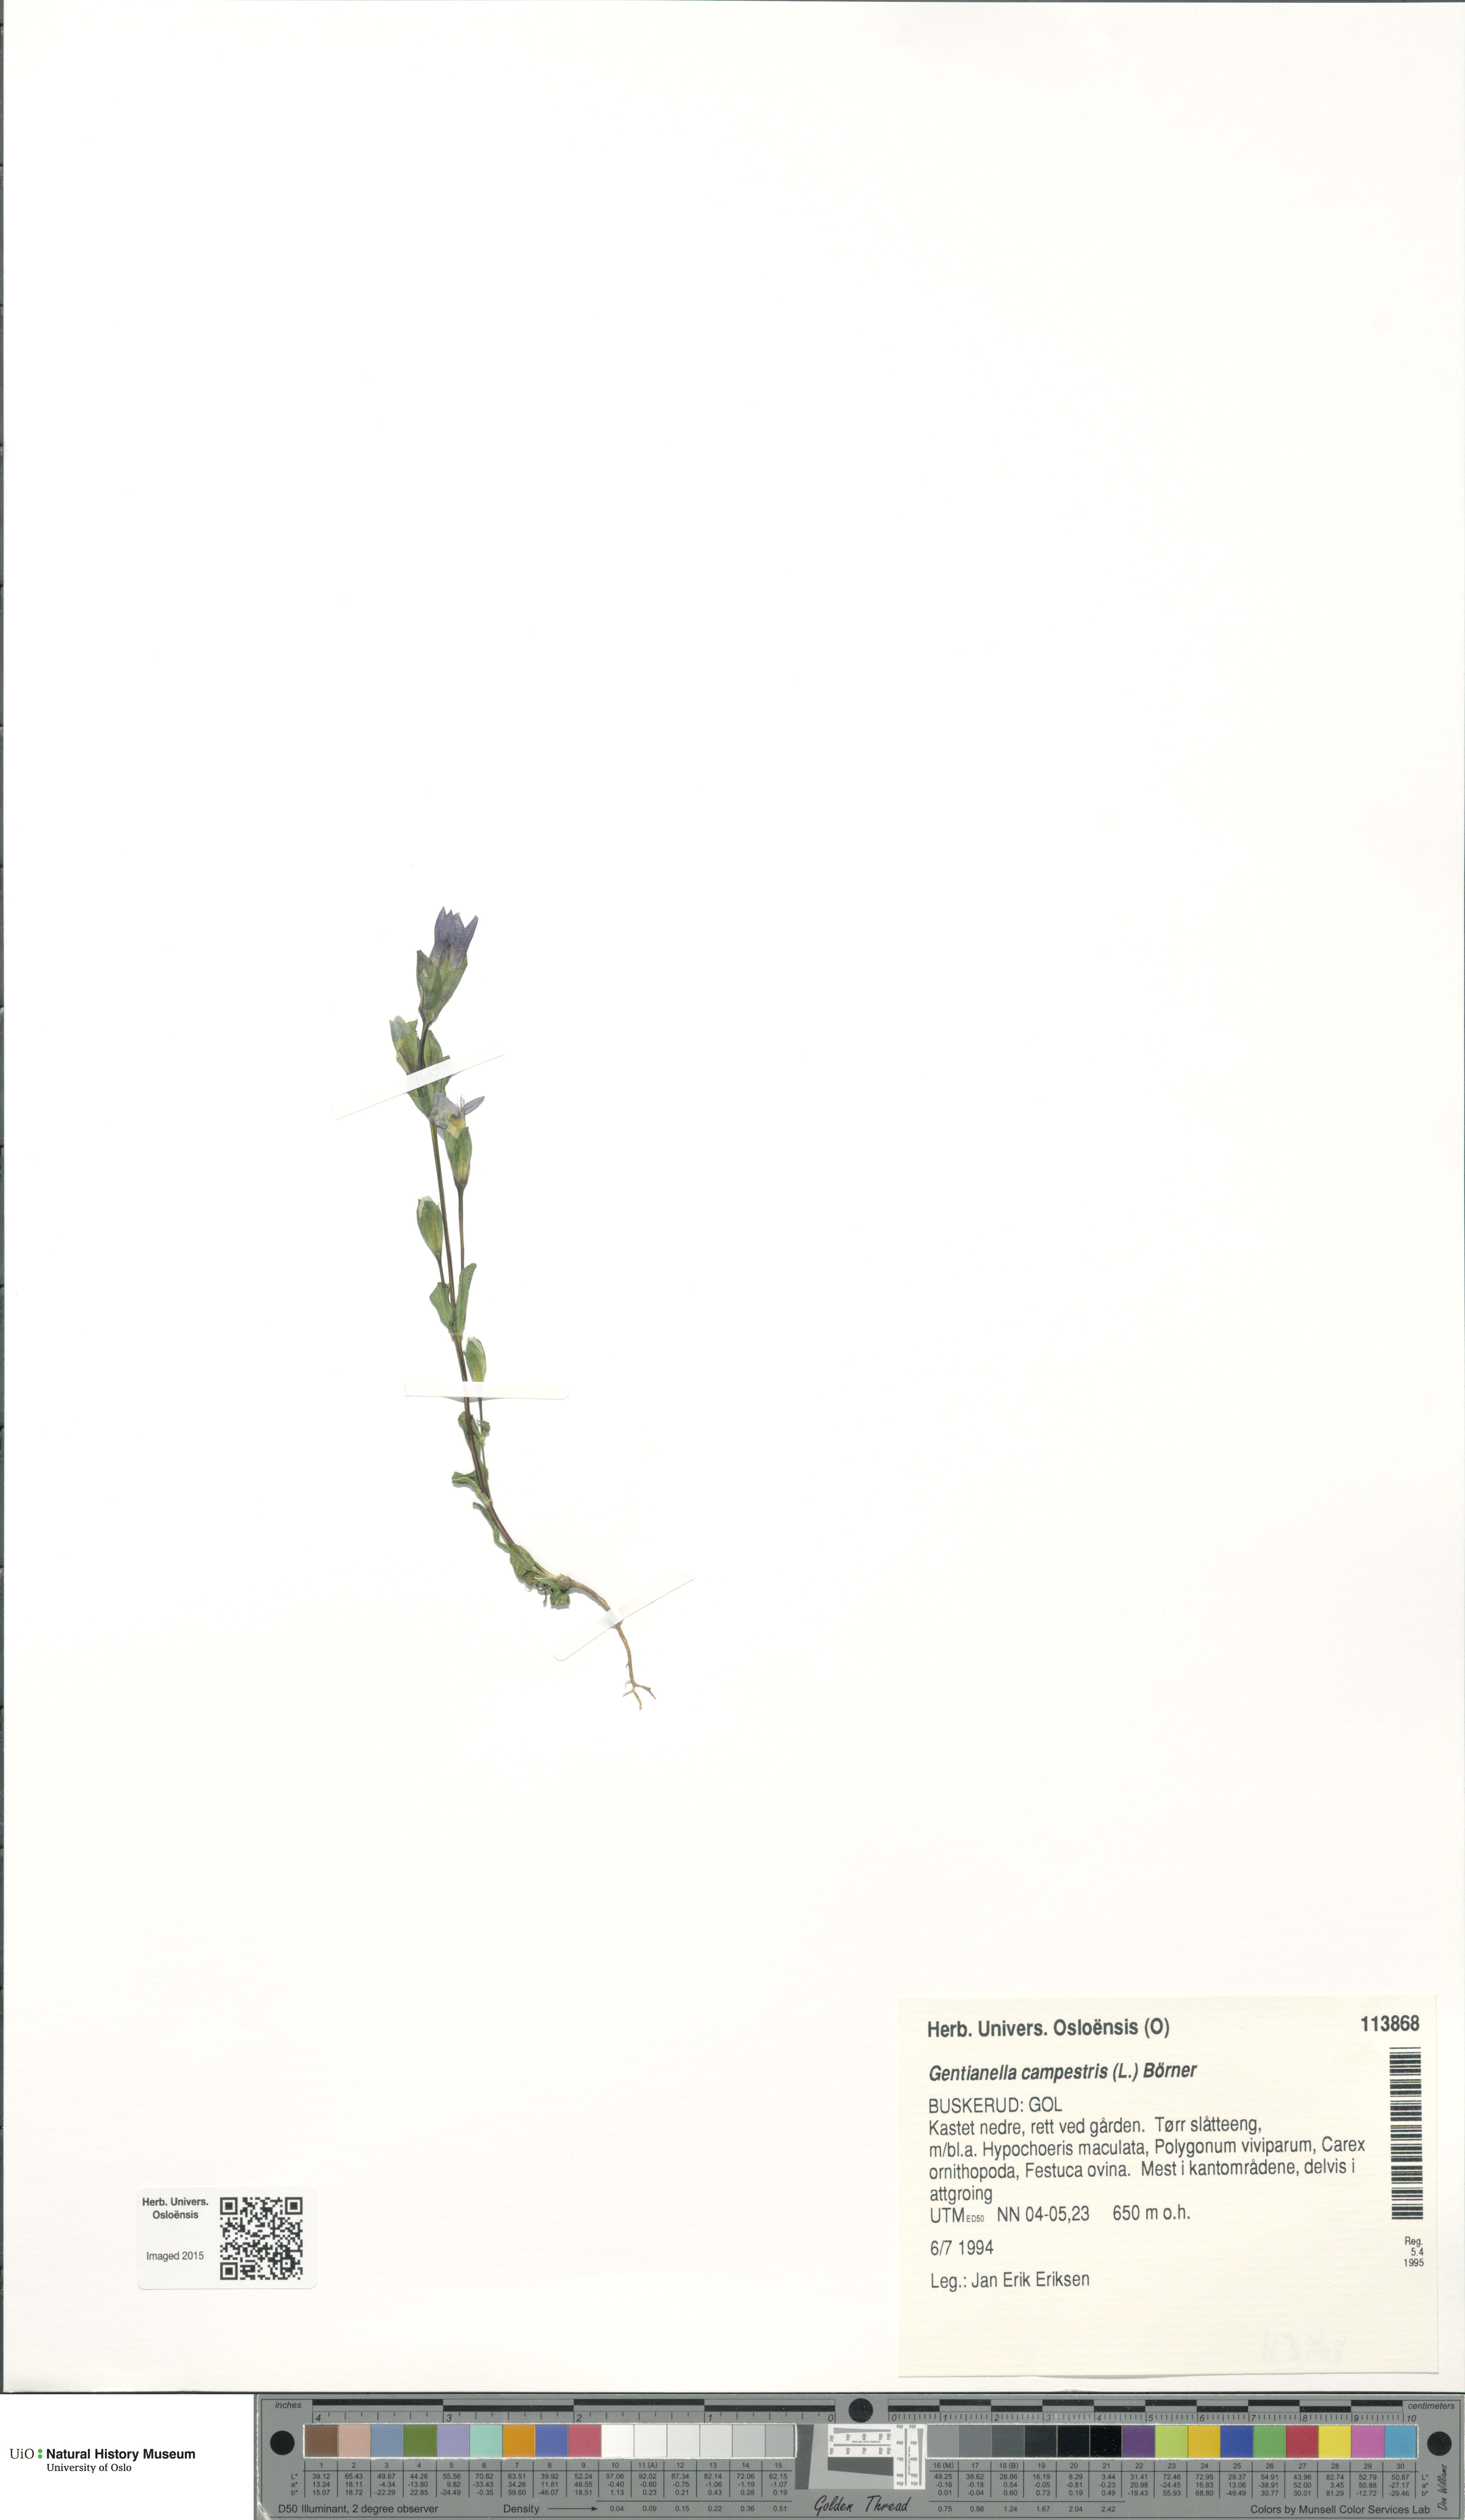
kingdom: Plantae
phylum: Tracheophyta
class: Magnoliopsida
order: Gentianales
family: Gentianaceae
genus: Gentianella
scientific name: Gentianella campestris
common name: Field gentian
